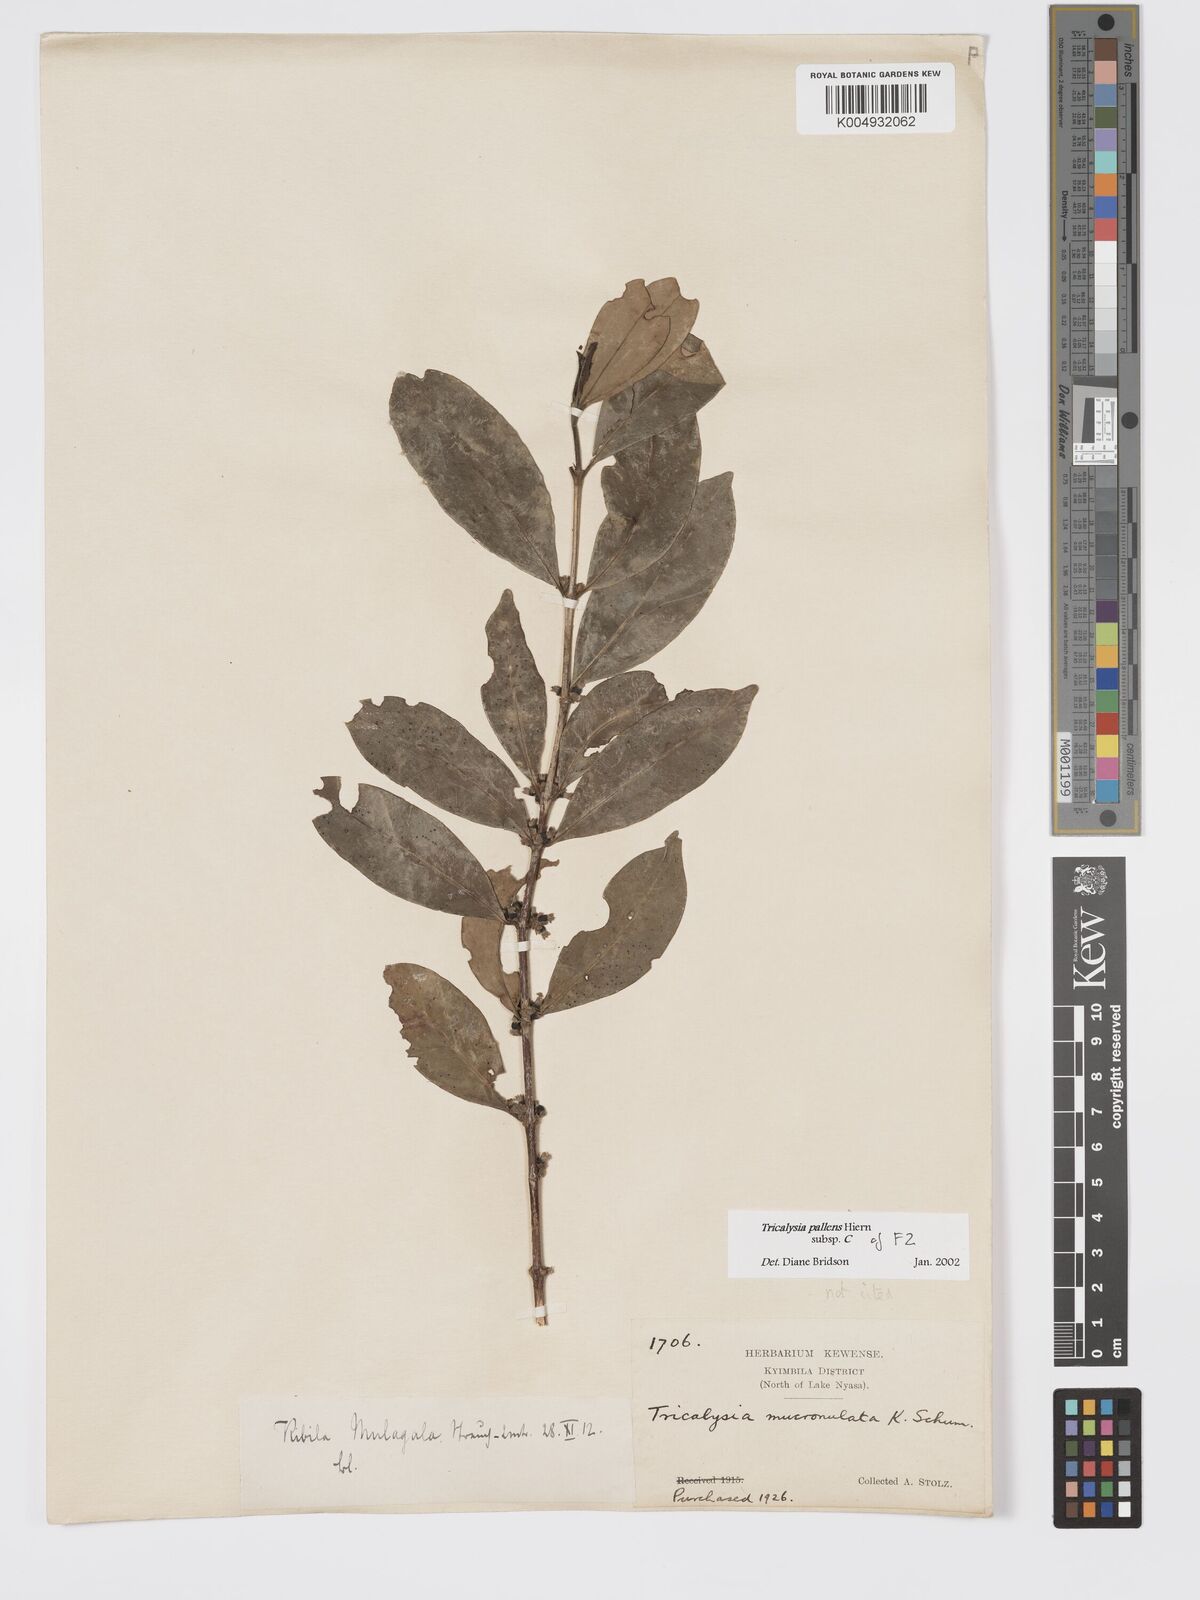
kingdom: Plantae
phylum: Tracheophyta
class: Magnoliopsida
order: Gentianales
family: Rubiaceae
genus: Tricalysia
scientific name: Tricalysia pallens
